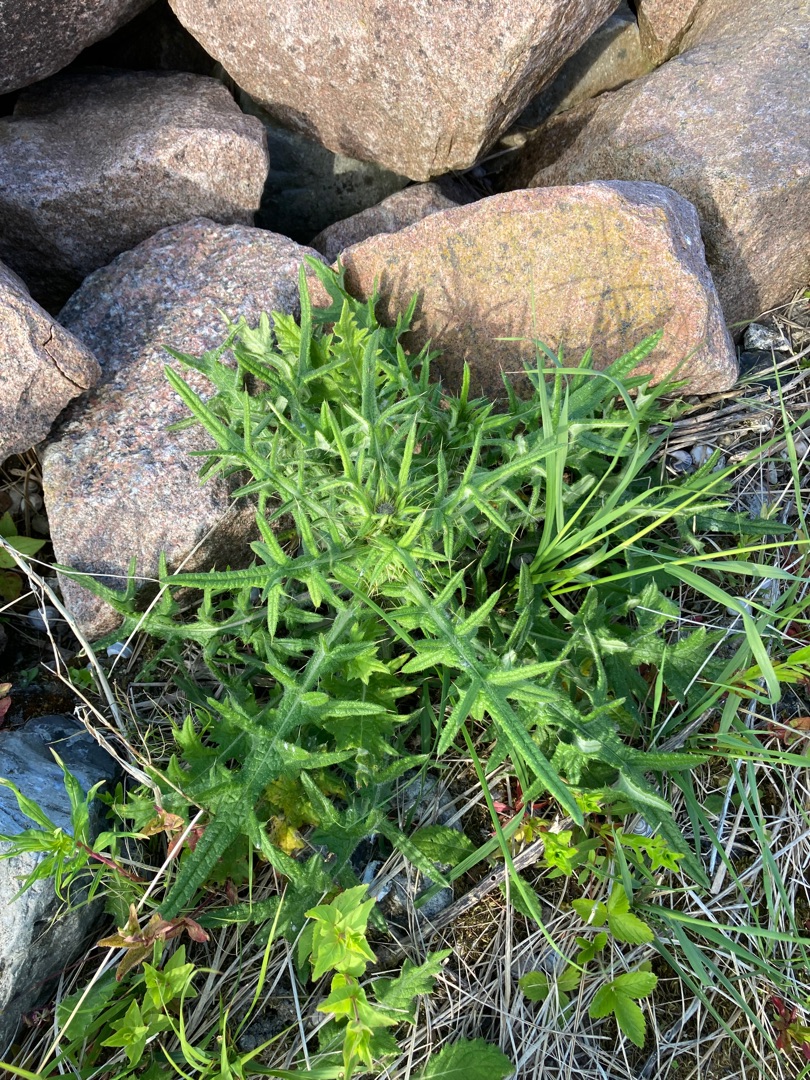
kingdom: Plantae
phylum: Tracheophyta
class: Magnoliopsida
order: Asterales
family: Asteraceae
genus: Cirsium
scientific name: Cirsium vulgare
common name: Horse-tidsel
